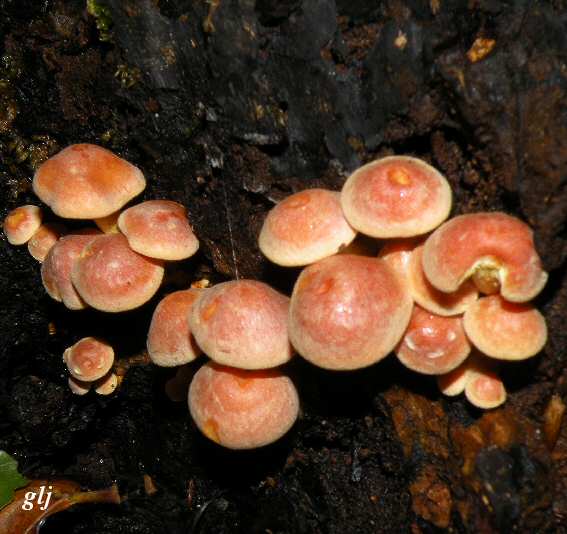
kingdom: Fungi
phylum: Basidiomycota
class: Agaricomycetes
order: Agaricales
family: Strophariaceae
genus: Hypholoma
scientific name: Hypholoma fasciculare
